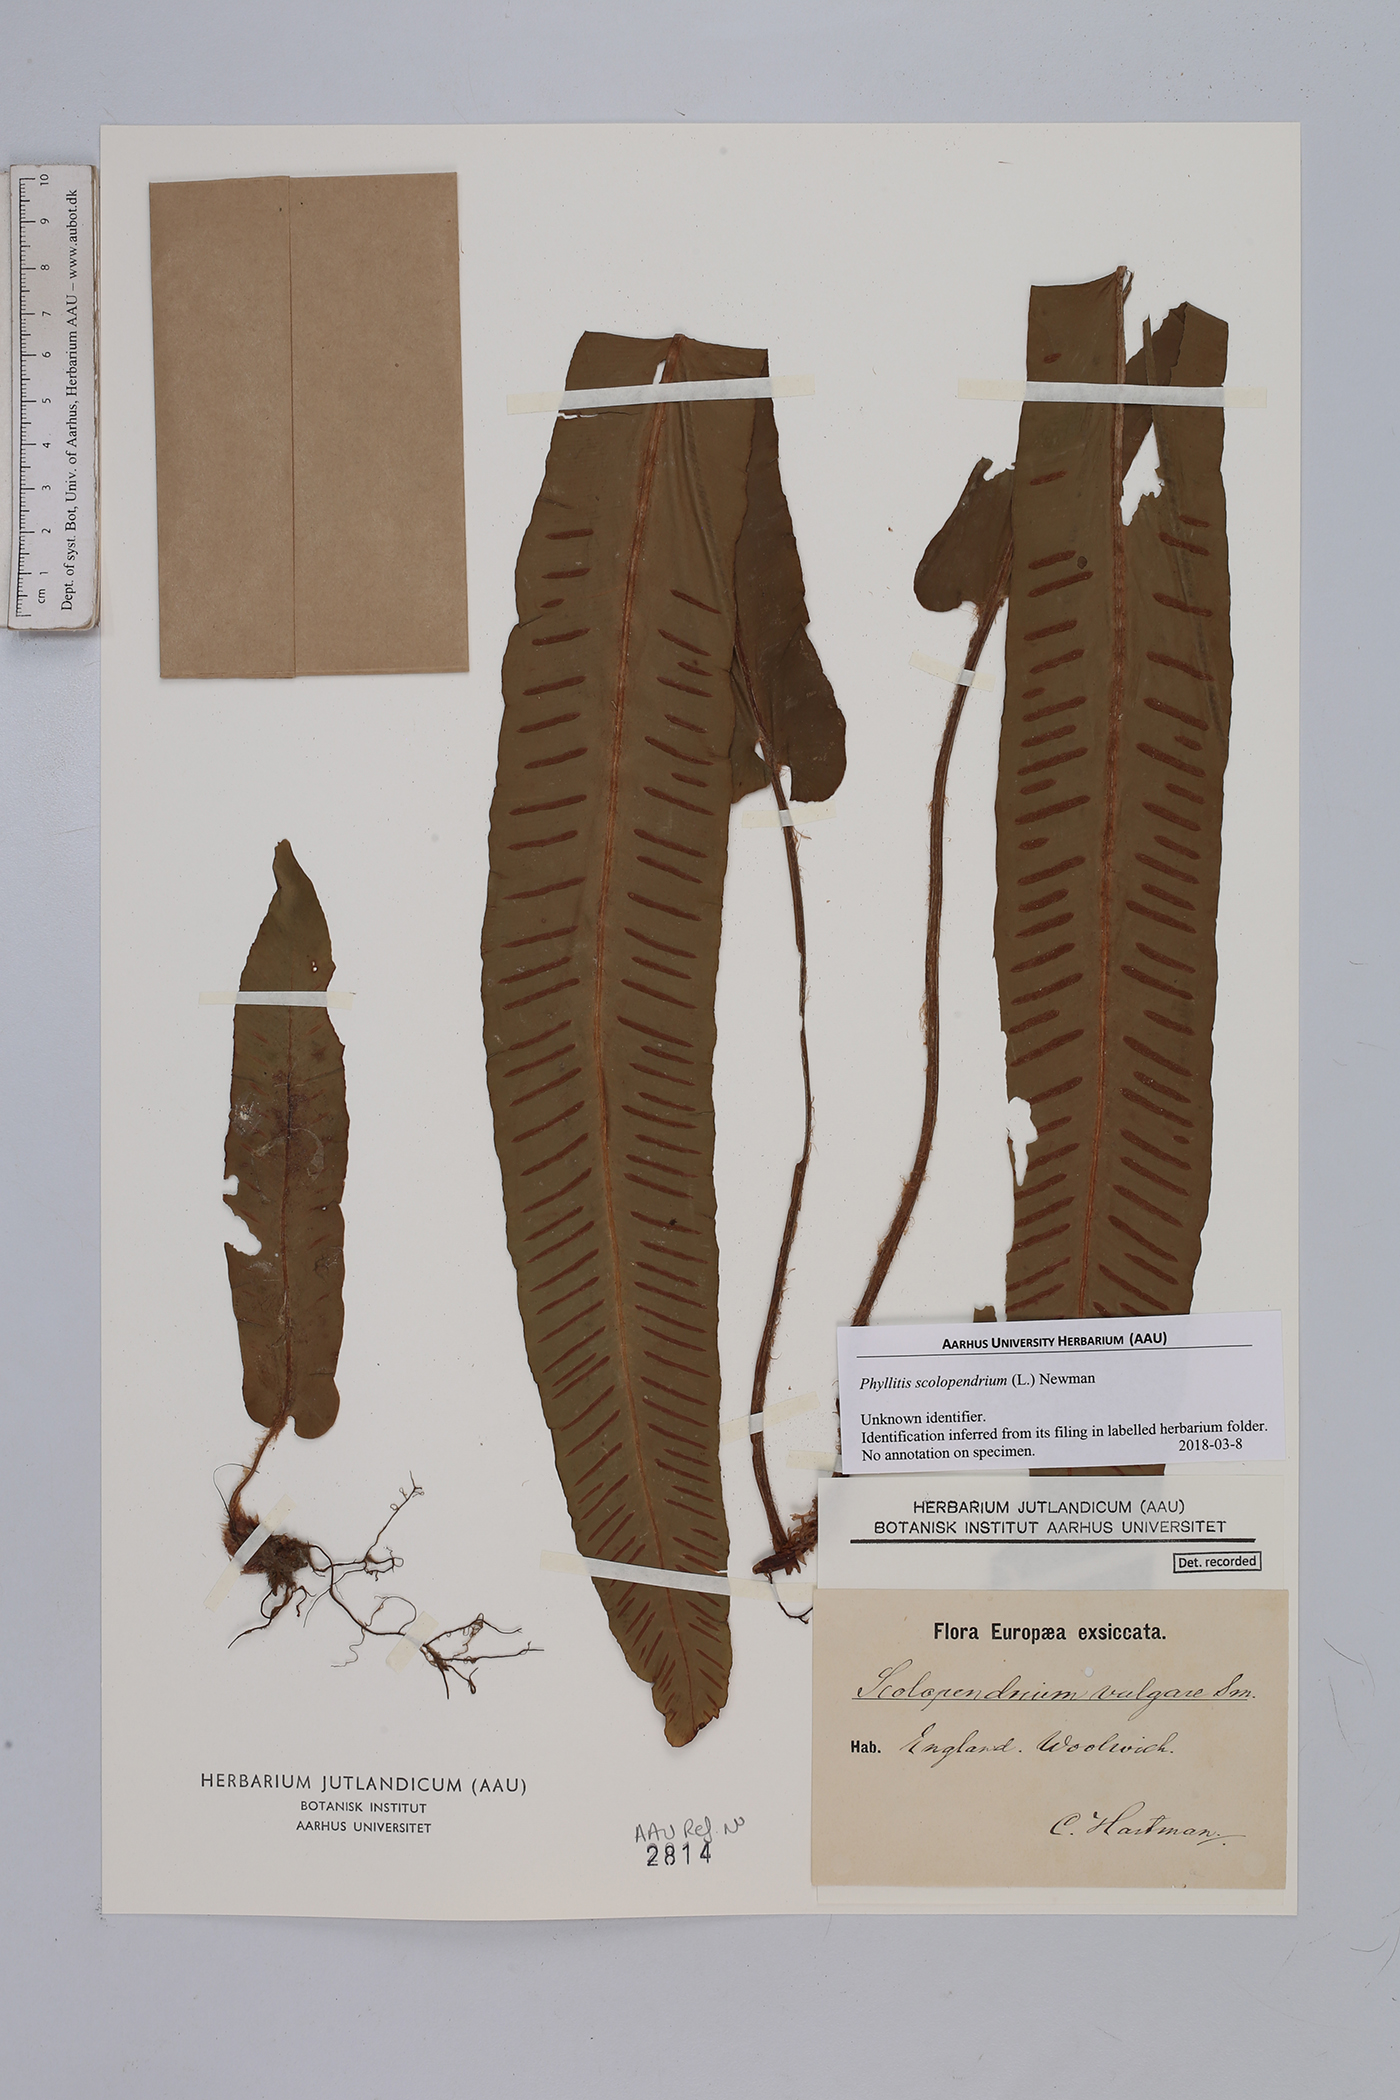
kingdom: Plantae
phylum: Tracheophyta
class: Polypodiopsida
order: Polypodiales
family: Aspleniaceae
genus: Asplenium
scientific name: Asplenium scolopendrium
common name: Hart's-tongue fern
